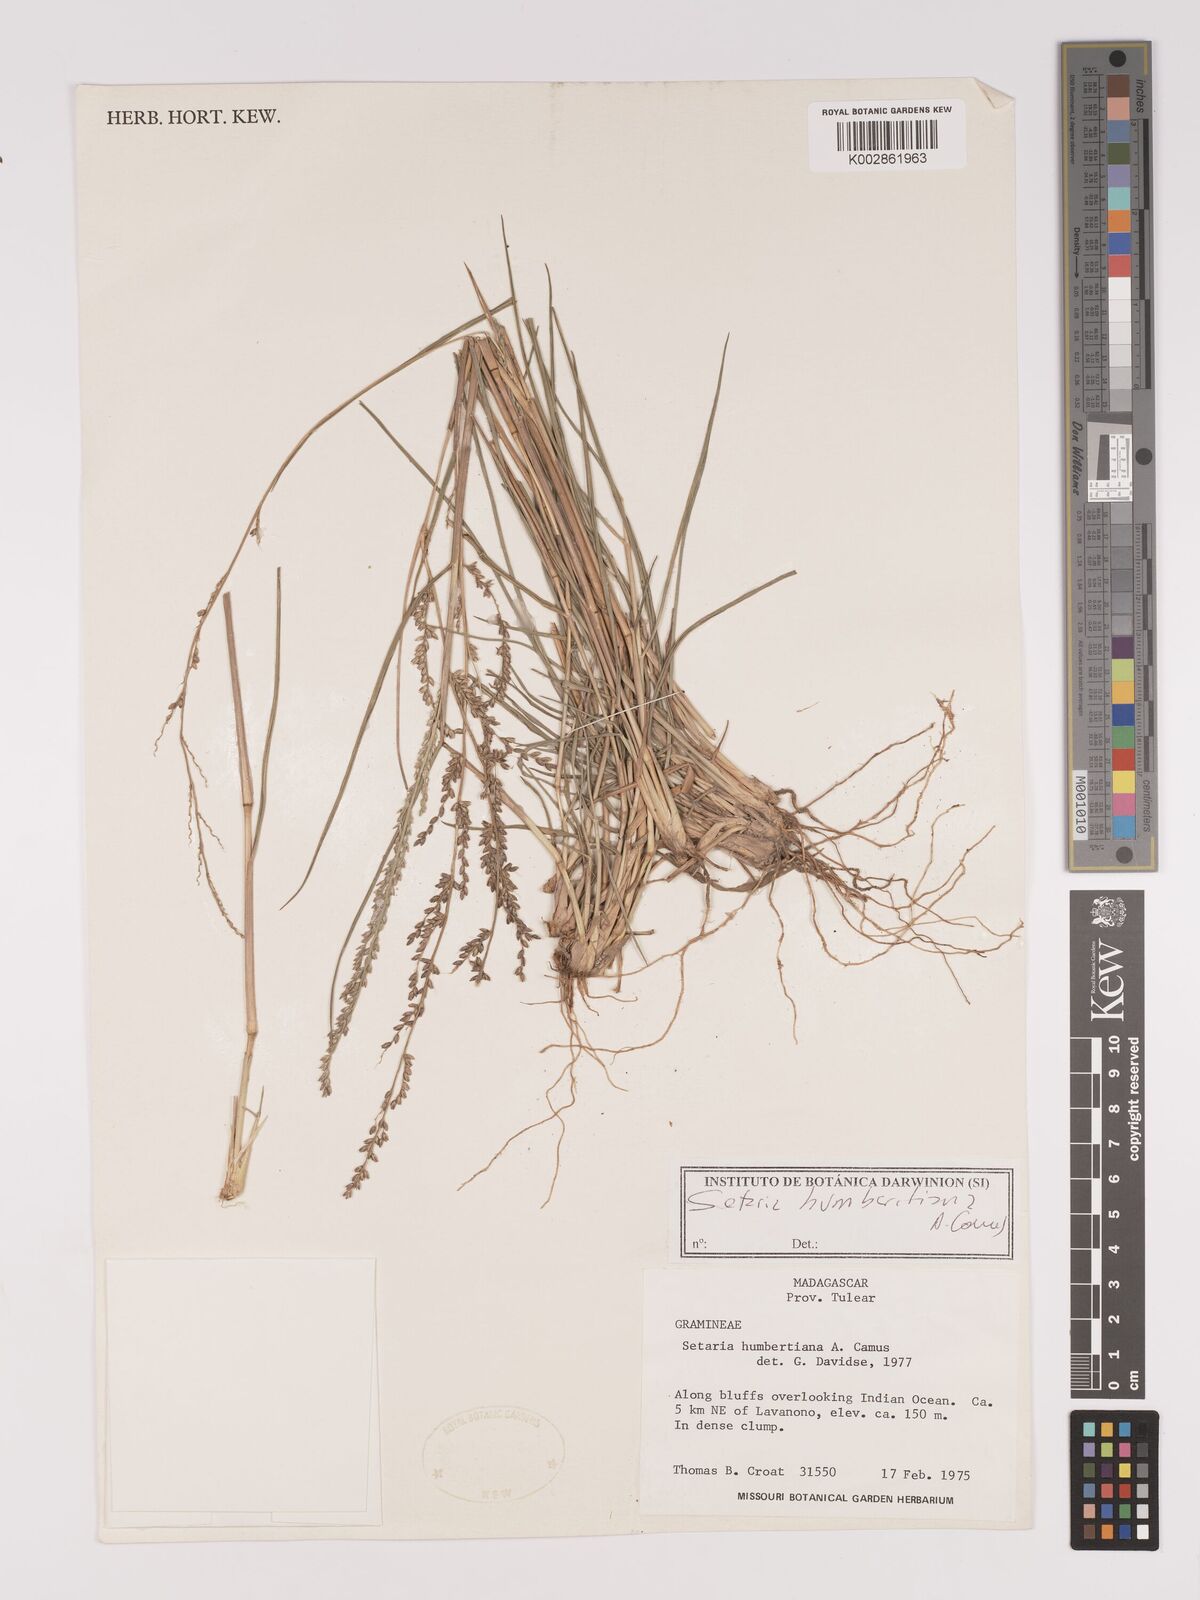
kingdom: Plantae
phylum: Tracheophyta
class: Liliopsida
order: Poales
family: Poaceae
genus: Setaria
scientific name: Setaria humbertiana
